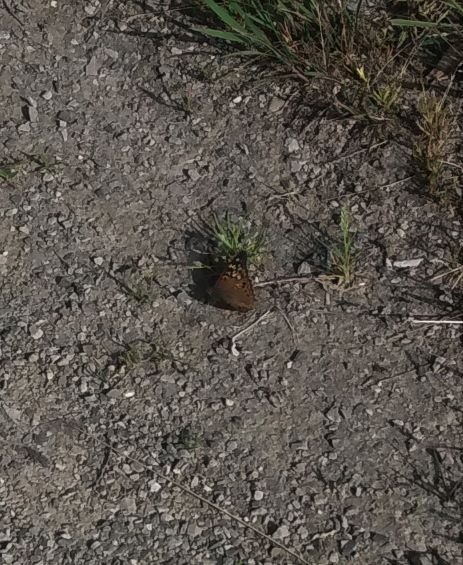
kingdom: Animalia
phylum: Arthropoda
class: Insecta
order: Lepidoptera
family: Nymphalidae
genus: Asterocampa
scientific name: Asterocampa celtis
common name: Hackberry Emperor
